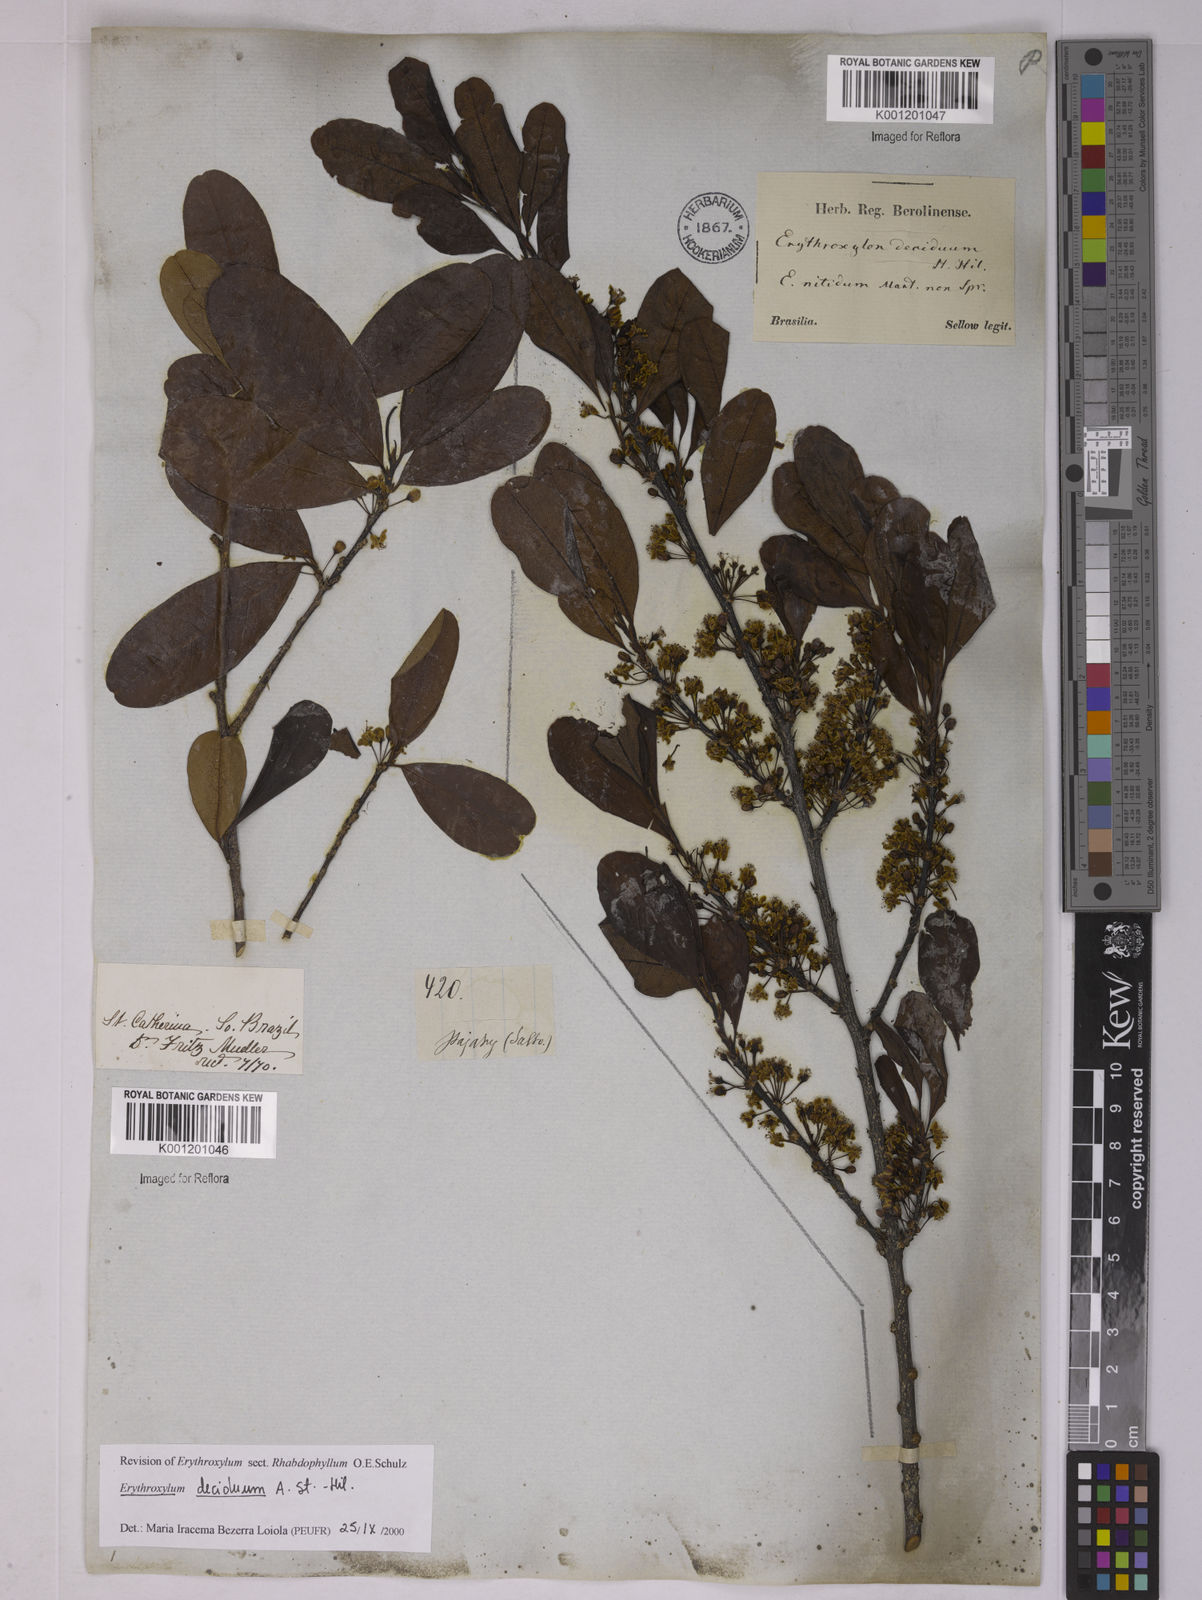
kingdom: Plantae
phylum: Tracheophyta
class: Magnoliopsida
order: Malpighiales
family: Erythroxylaceae
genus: Erythroxylum
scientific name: Erythroxylum deciduum
